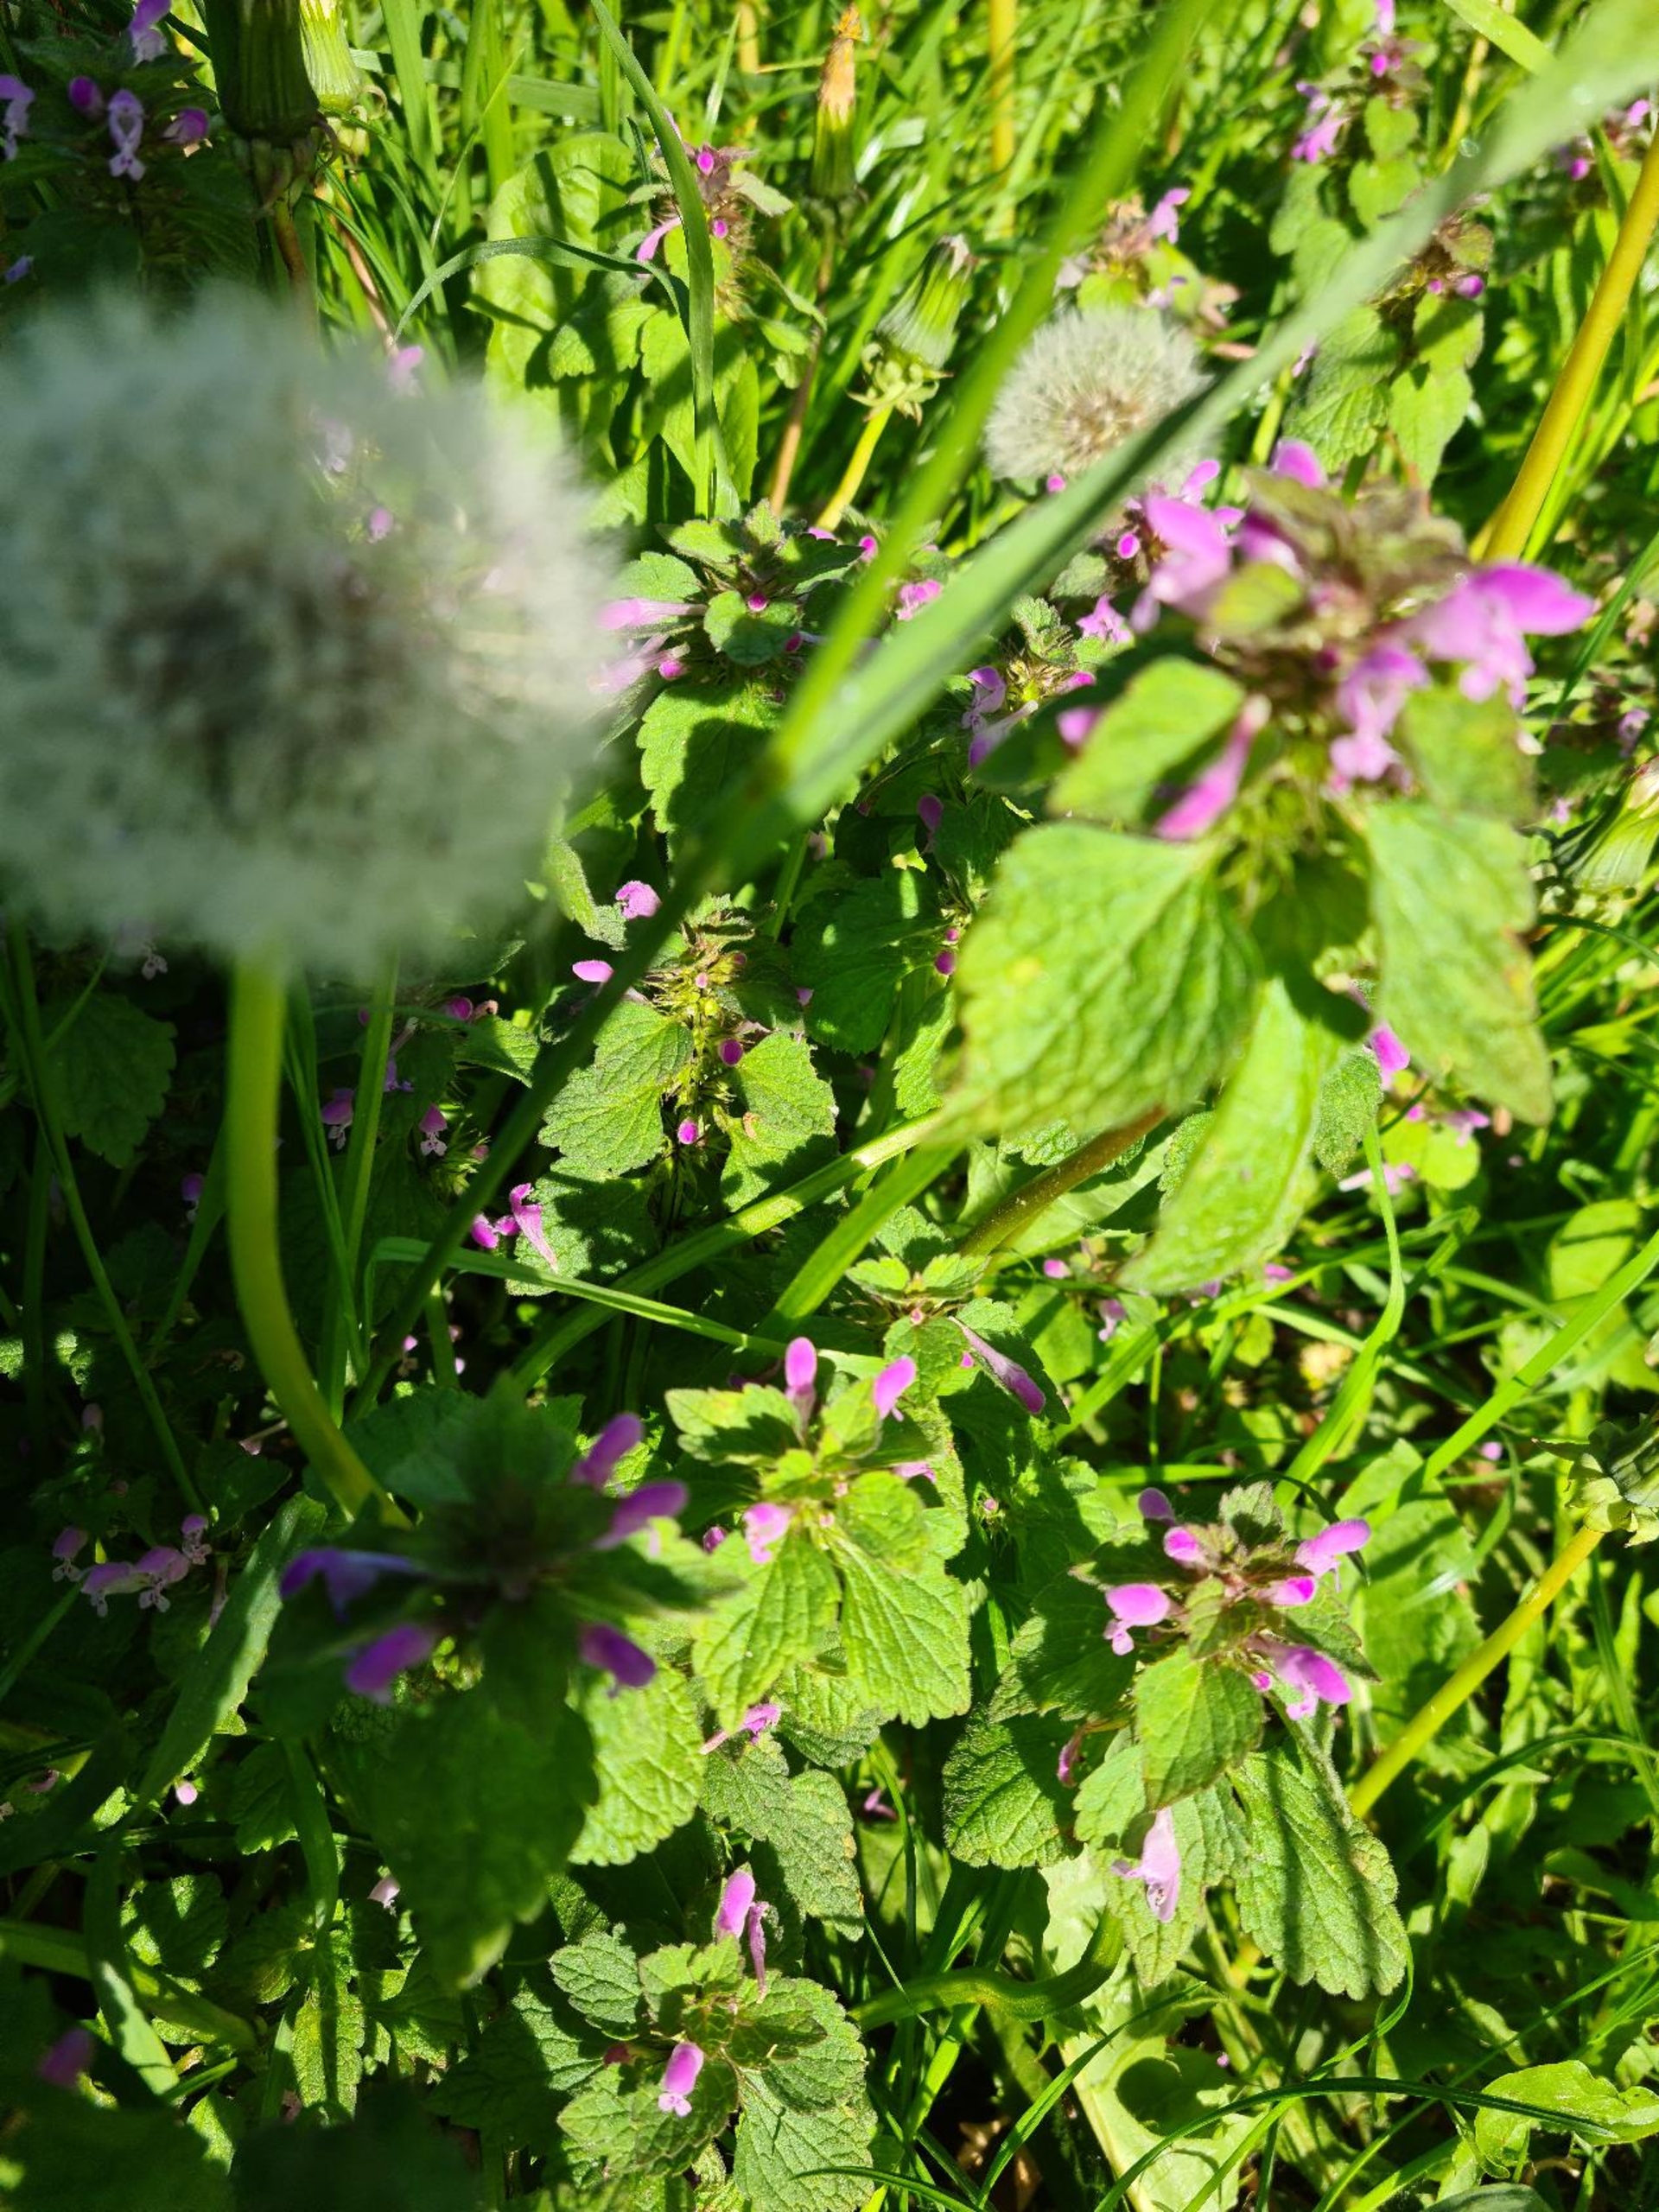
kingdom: Plantae
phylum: Tracheophyta
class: Magnoliopsida
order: Lamiales
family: Lamiaceae
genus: Lamium
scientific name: Lamium purpureum
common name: Rød tvetand
